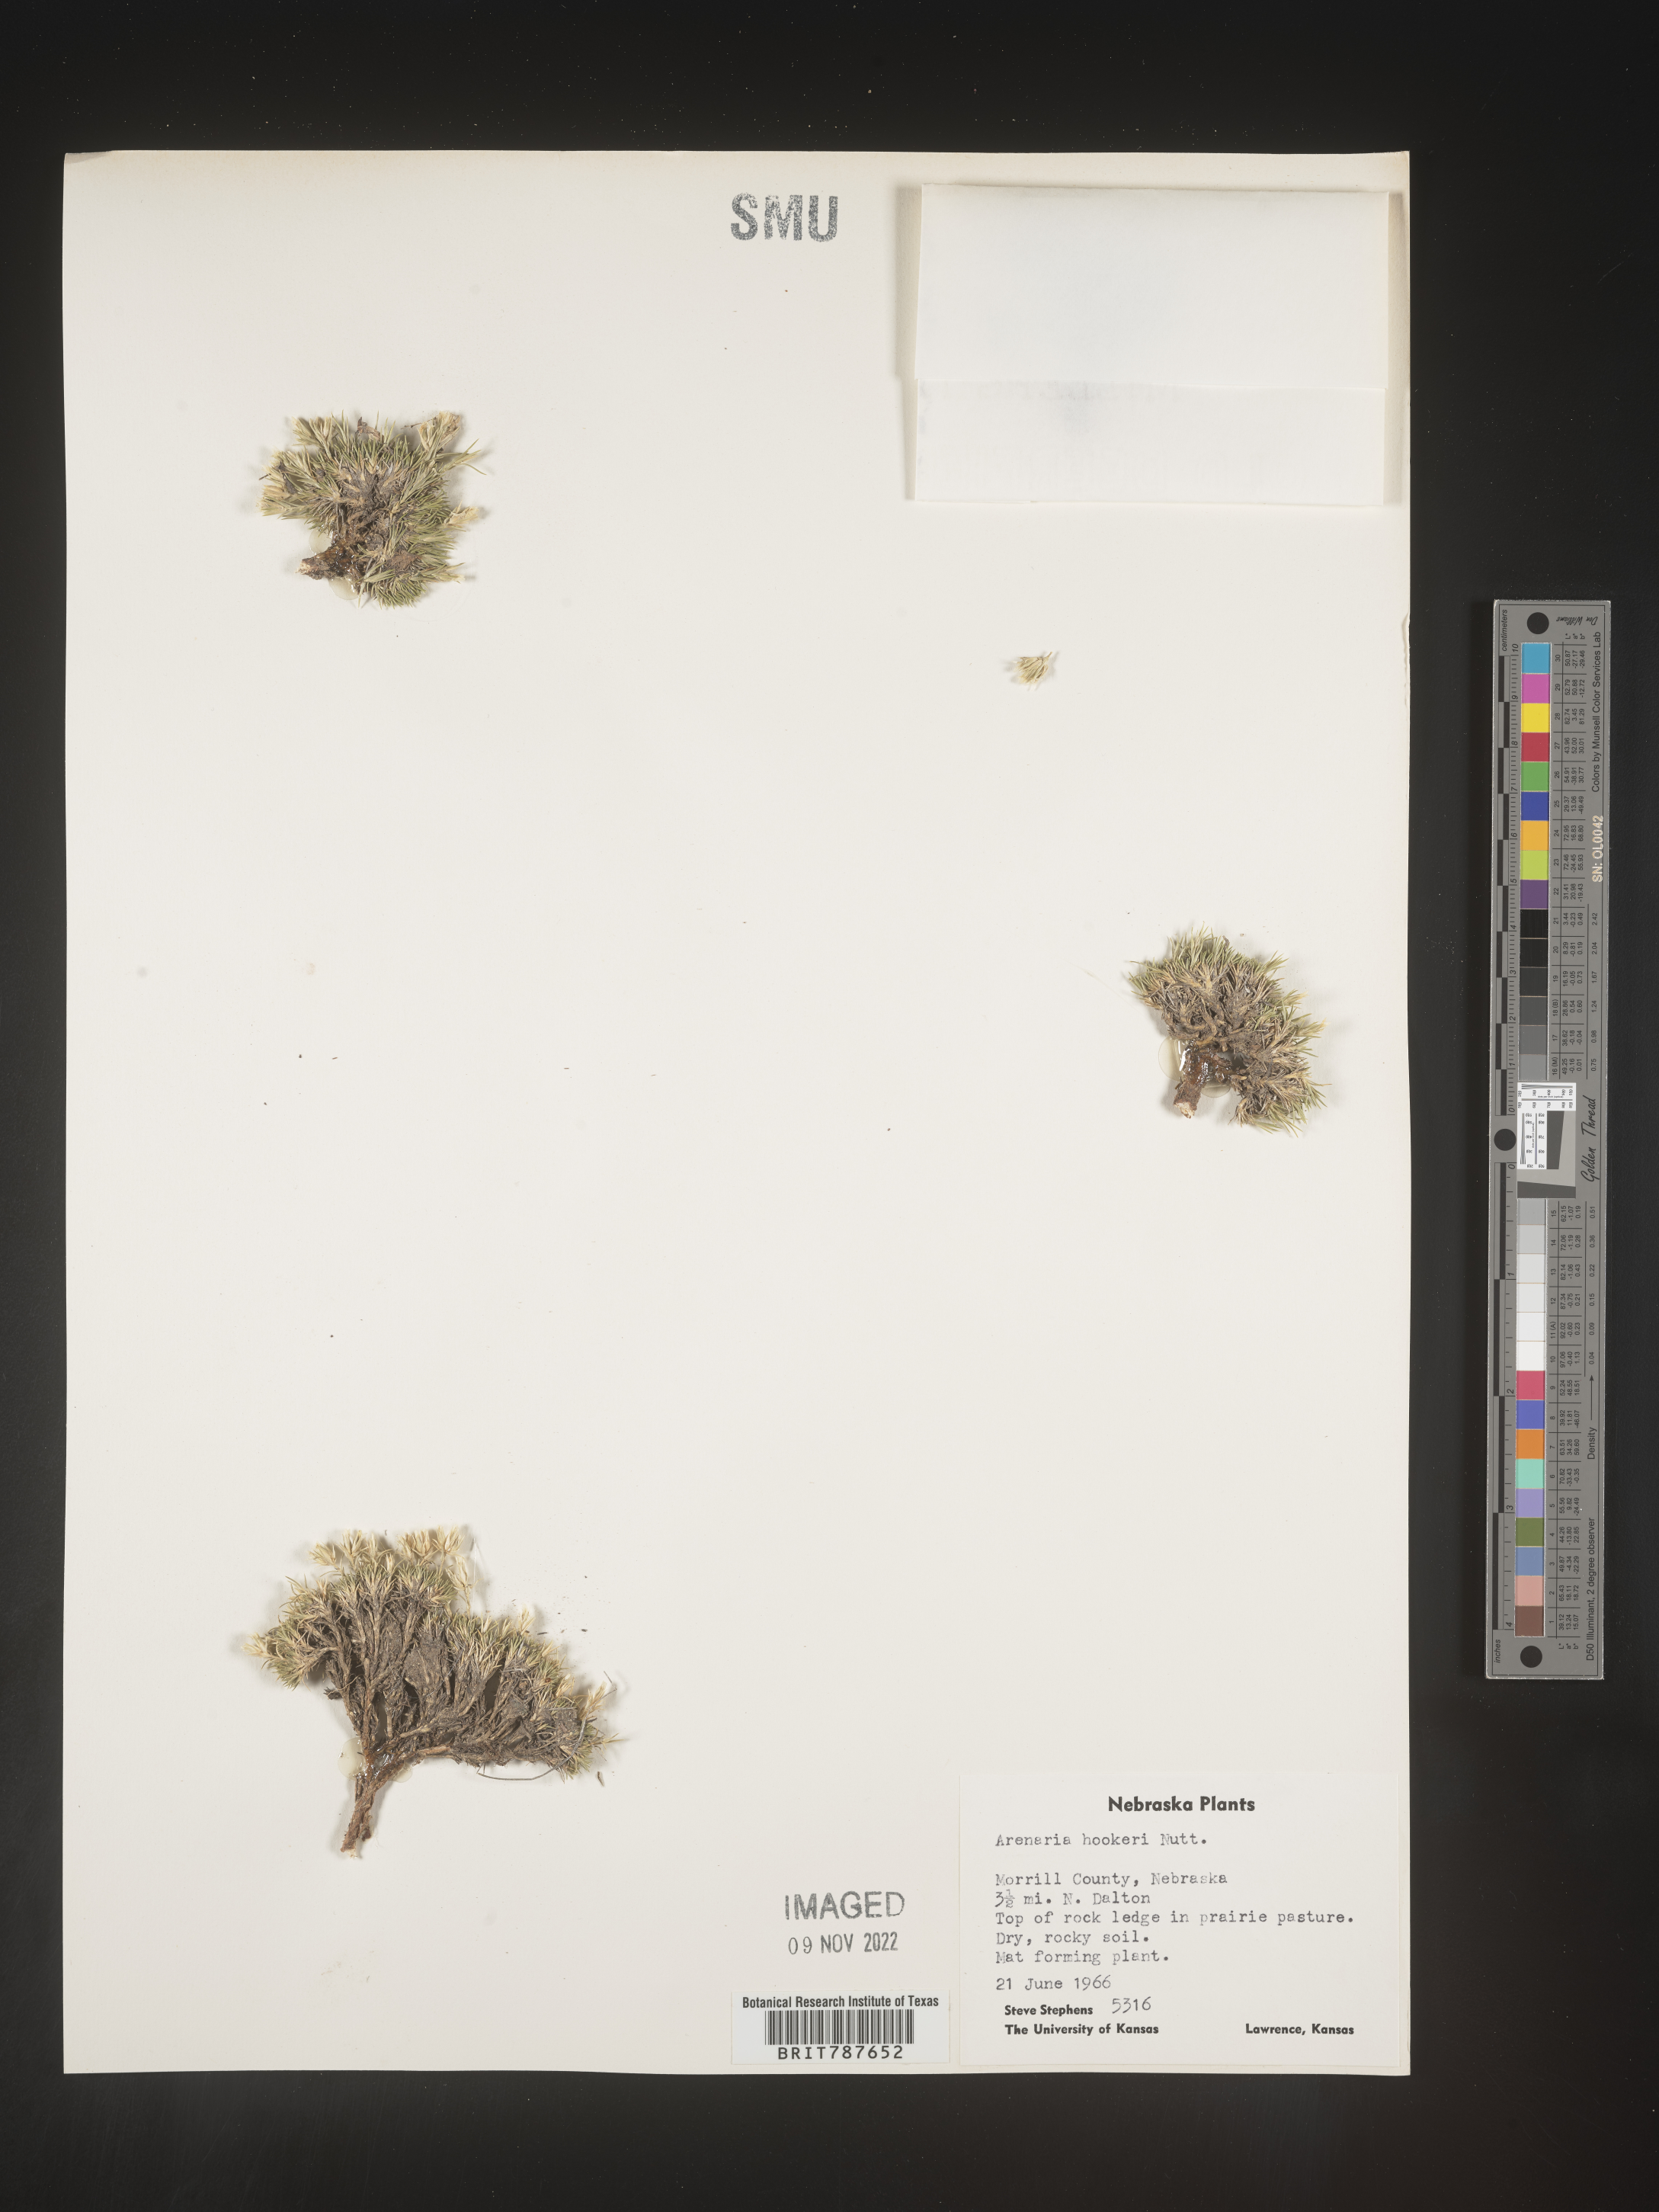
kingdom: Plantae
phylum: Tracheophyta
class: Magnoliopsida
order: Caryophyllales
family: Caryophyllaceae
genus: Arenaria
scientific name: Arenaria
